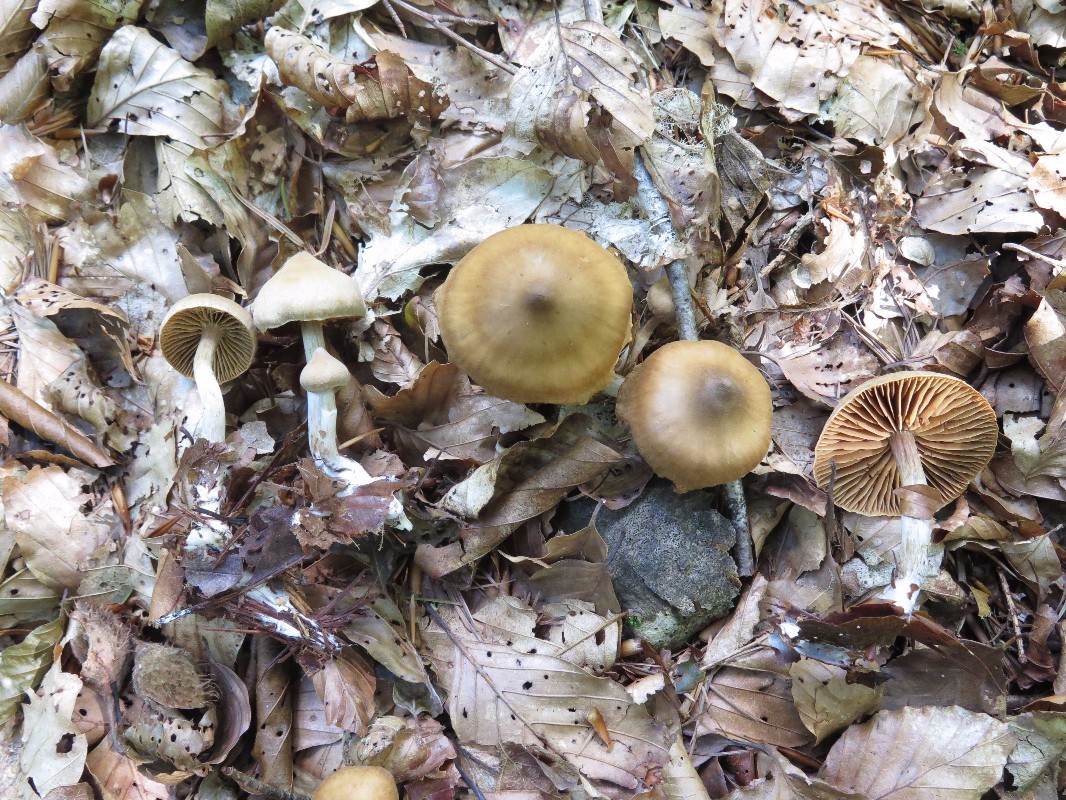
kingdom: Fungi
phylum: Basidiomycota
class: Agaricomycetes
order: Agaricales
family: Cortinariaceae
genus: Cortinarius
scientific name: Cortinarius
